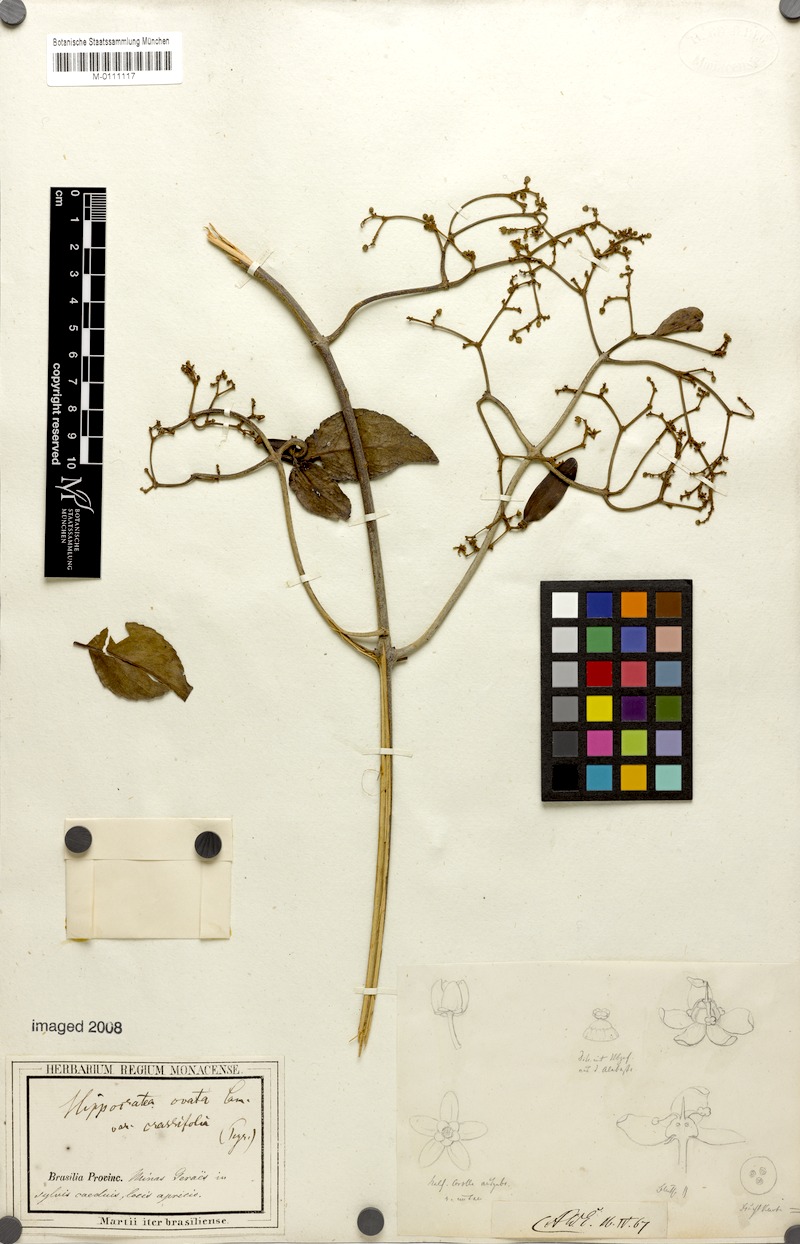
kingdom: Plantae
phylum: Tracheophyta
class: Magnoliopsida
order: Celastrales
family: Celastraceae
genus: Hippocratea
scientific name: Hippocratea volubilis
